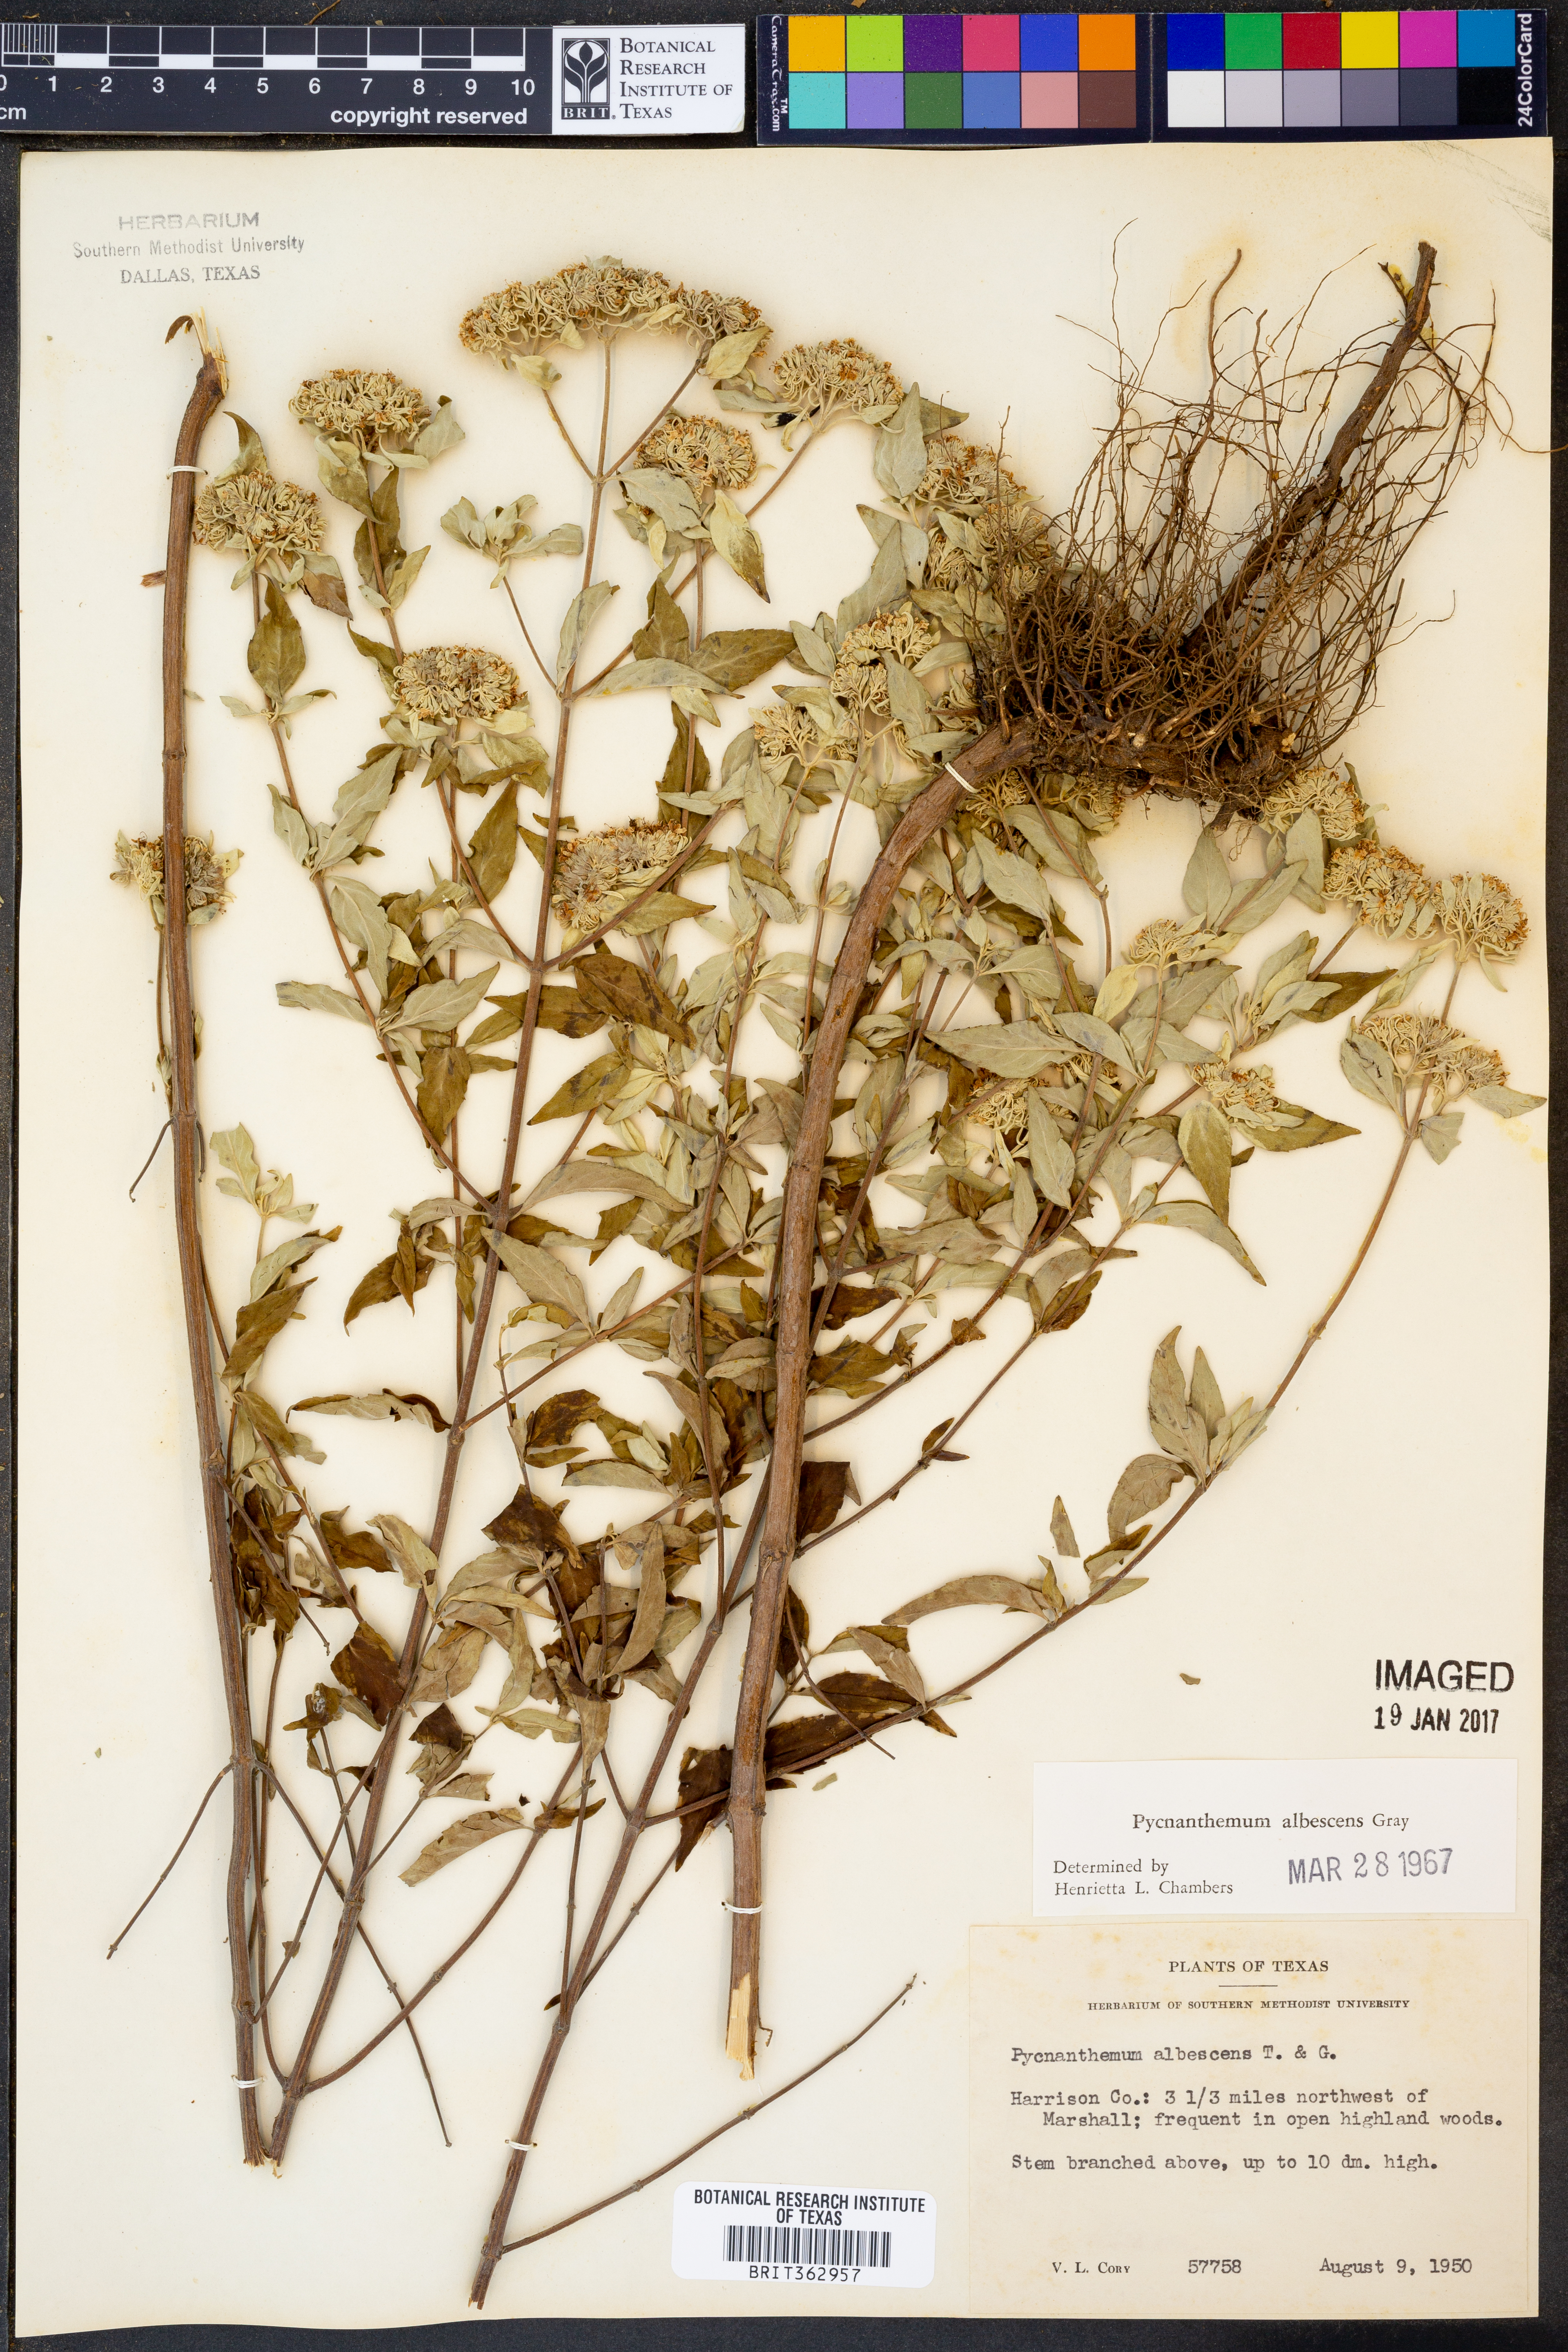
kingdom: Plantae
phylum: Tracheophyta
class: Magnoliopsida
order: Lamiales
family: Lamiaceae
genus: Pycnanthemum
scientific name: Pycnanthemum albescens
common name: White-leaf mountain-mint
